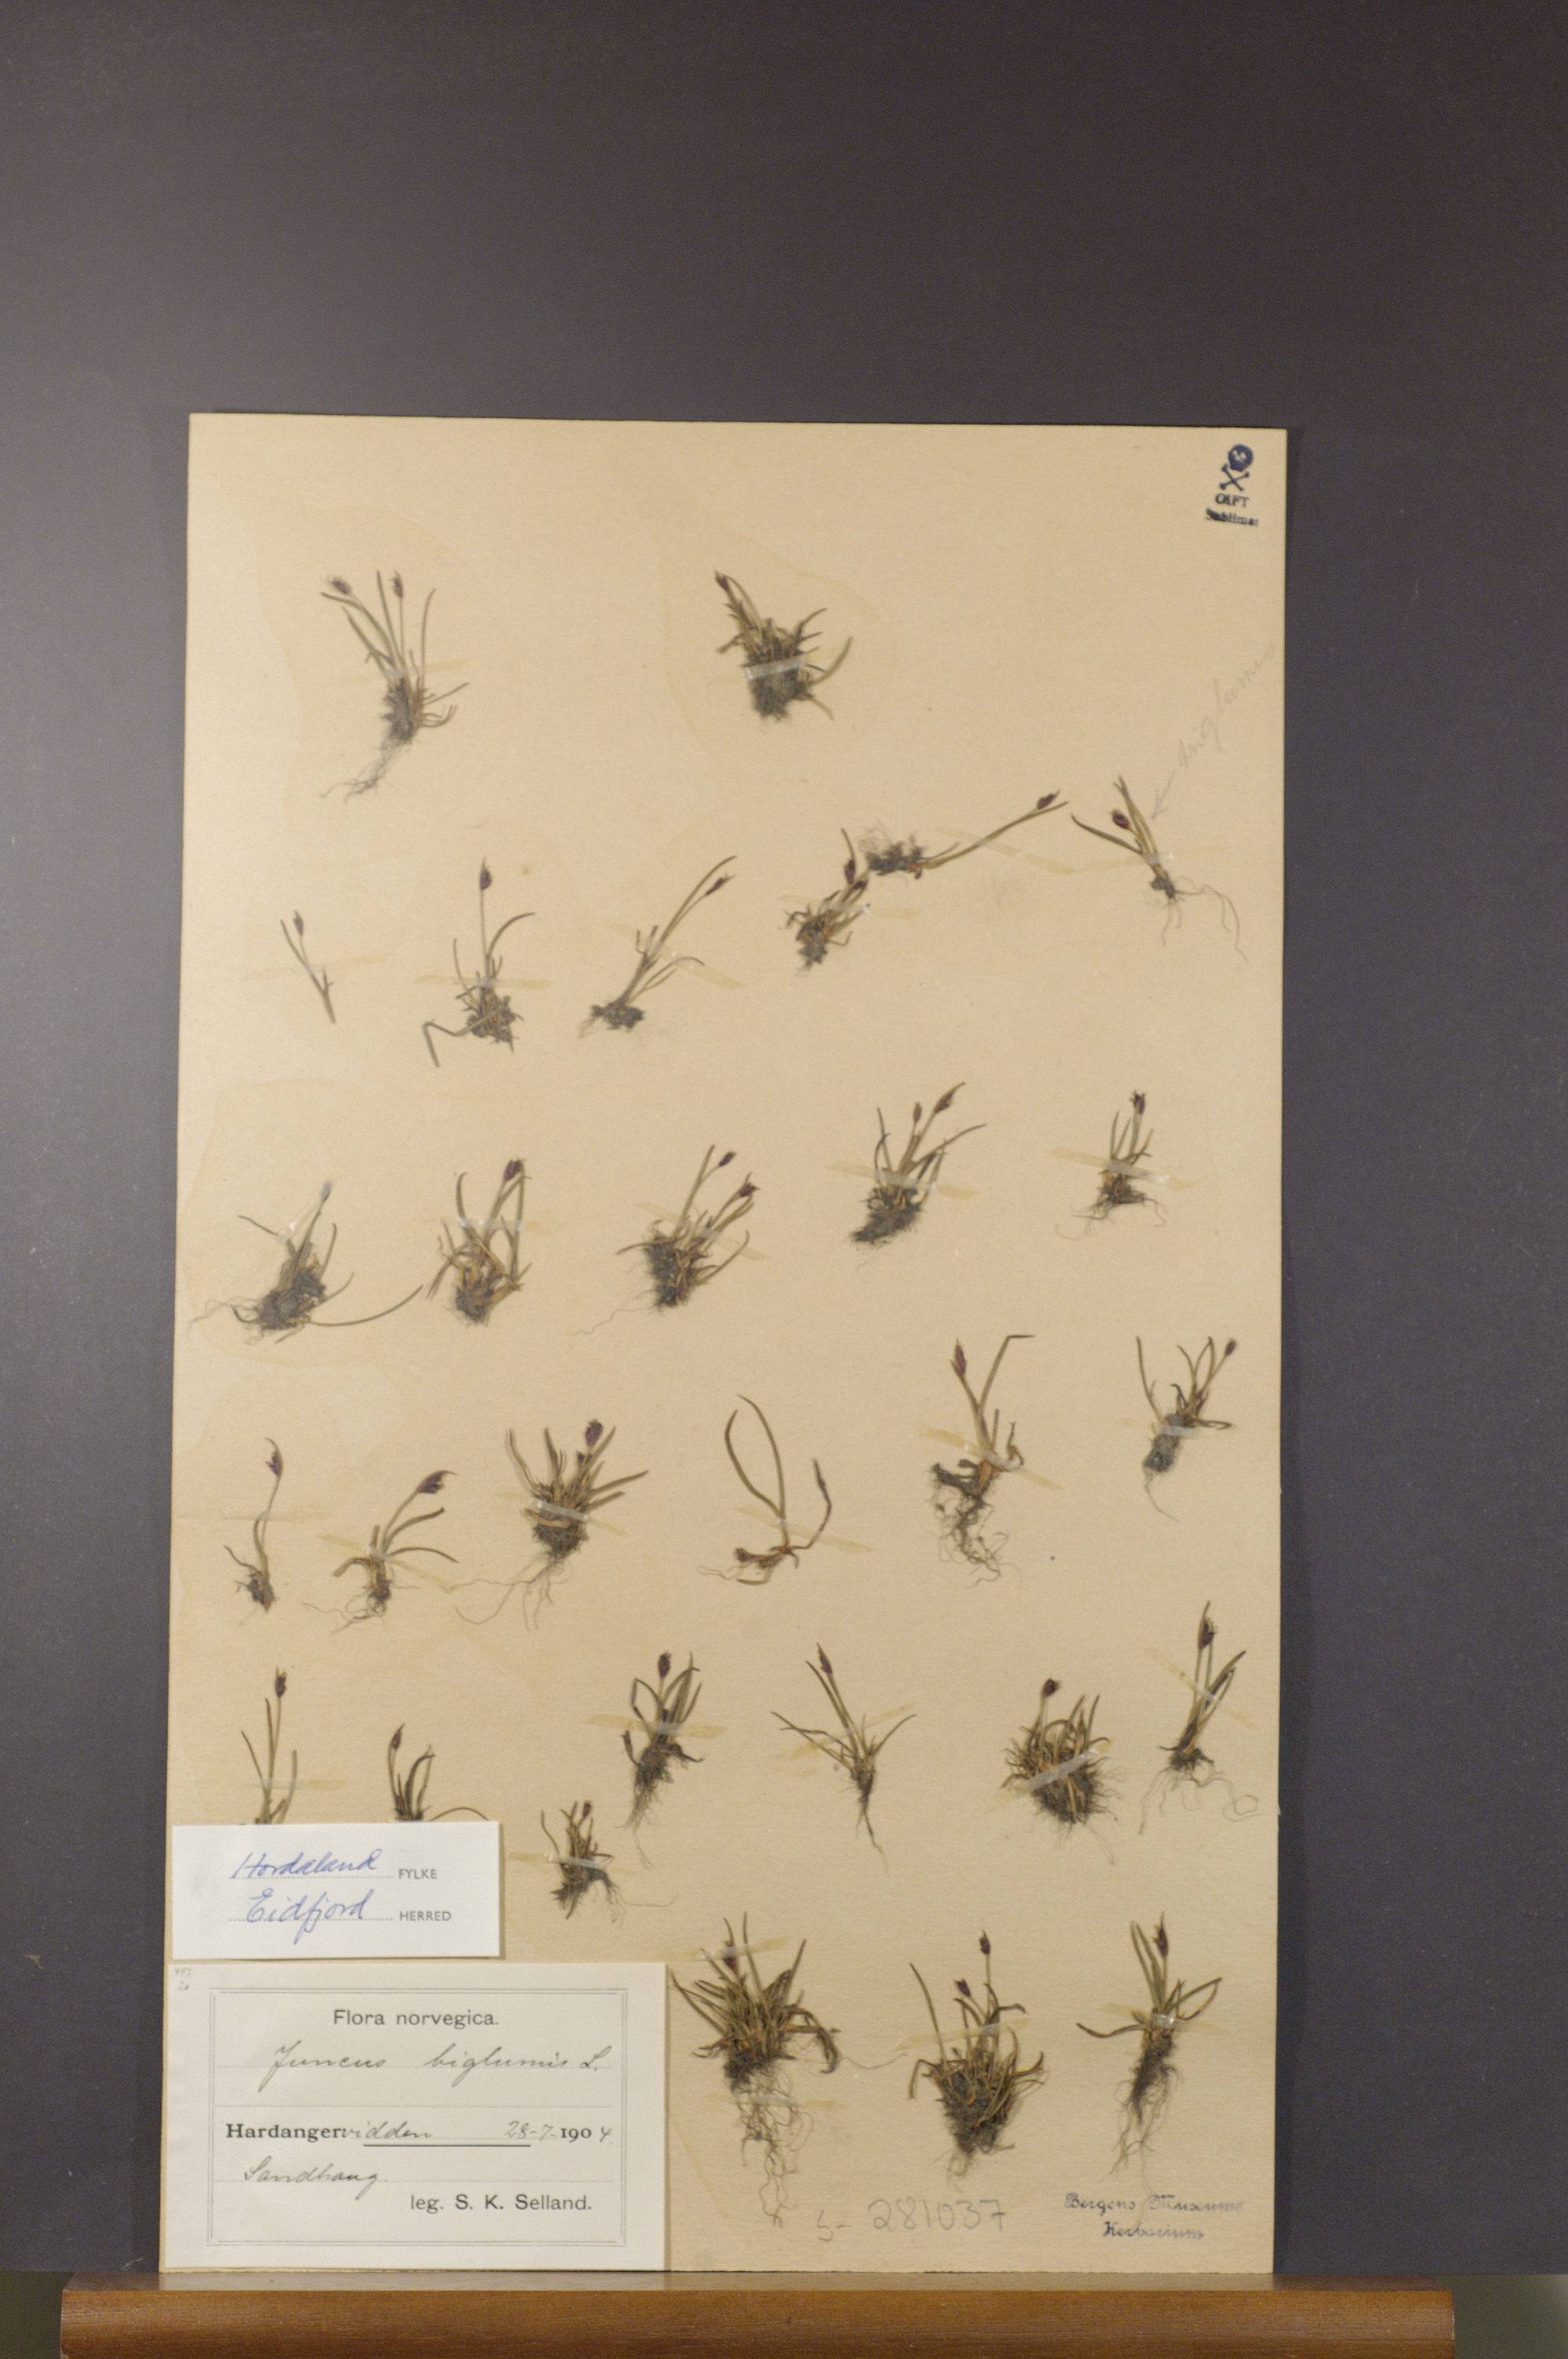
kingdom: Plantae
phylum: Tracheophyta
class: Liliopsida
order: Poales
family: Juncaceae
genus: Juncus
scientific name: Juncus biglumis
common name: Two-flowered rush
